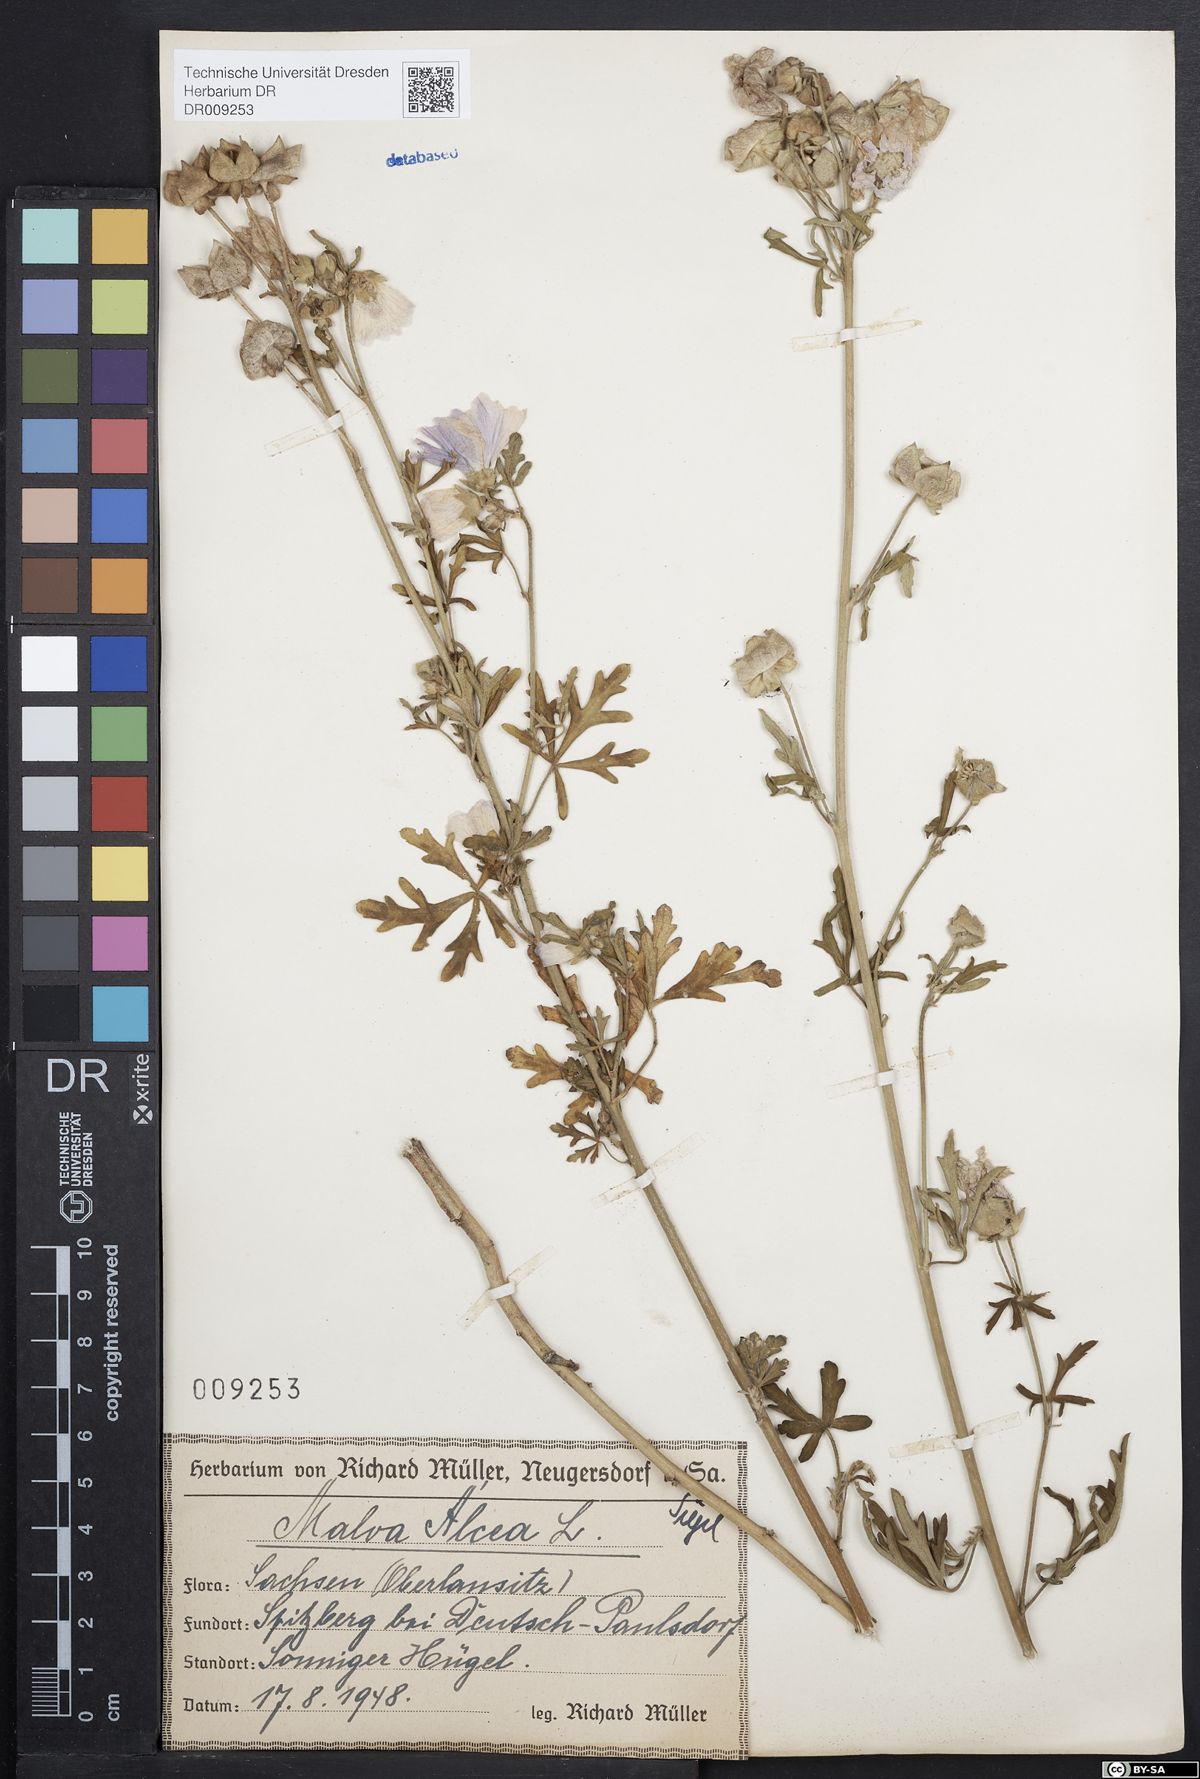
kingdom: Plantae
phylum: Tracheophyta
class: Magnoliopsida
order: Malvales
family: Malvaceae
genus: Malva
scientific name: Malva alcea
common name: Greater musk-mallow
